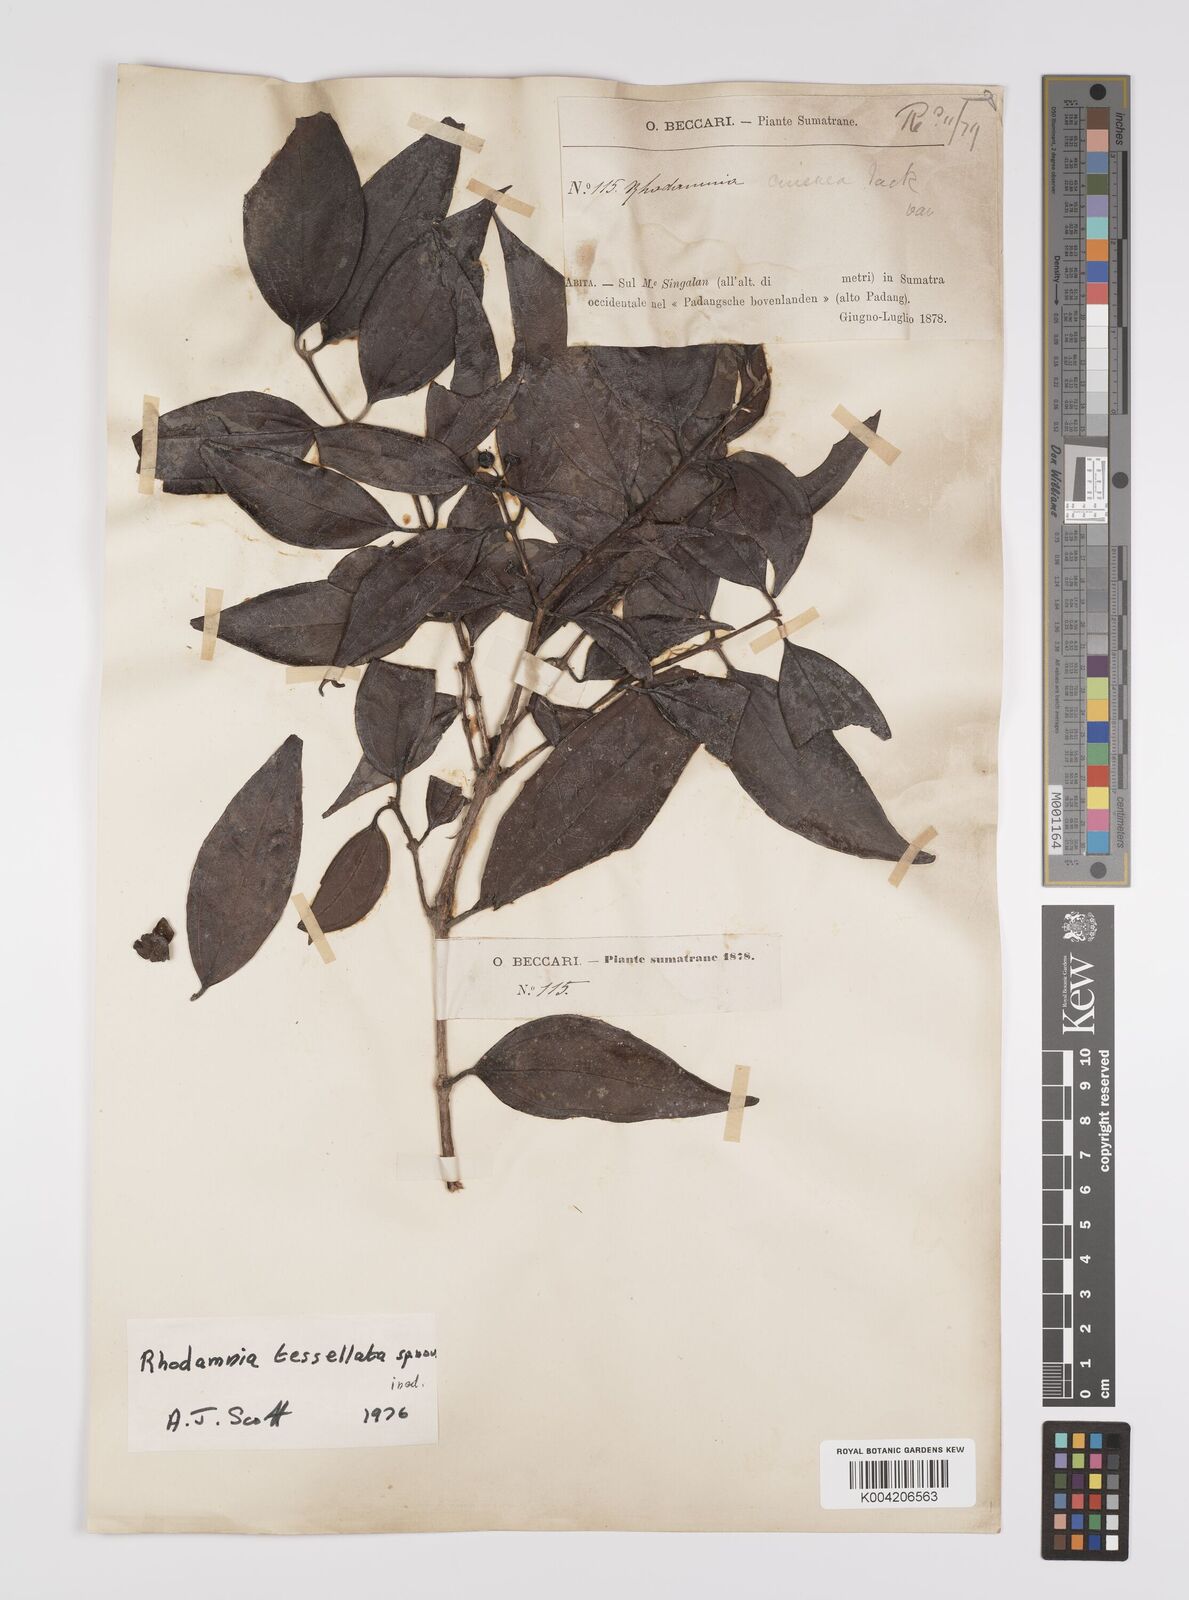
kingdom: Plantae
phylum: Tracheophyta
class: Magnoliopsida
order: Myrtales
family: Myrtaceae
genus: Rhodamnia
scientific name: Rhodamnia tessellata
